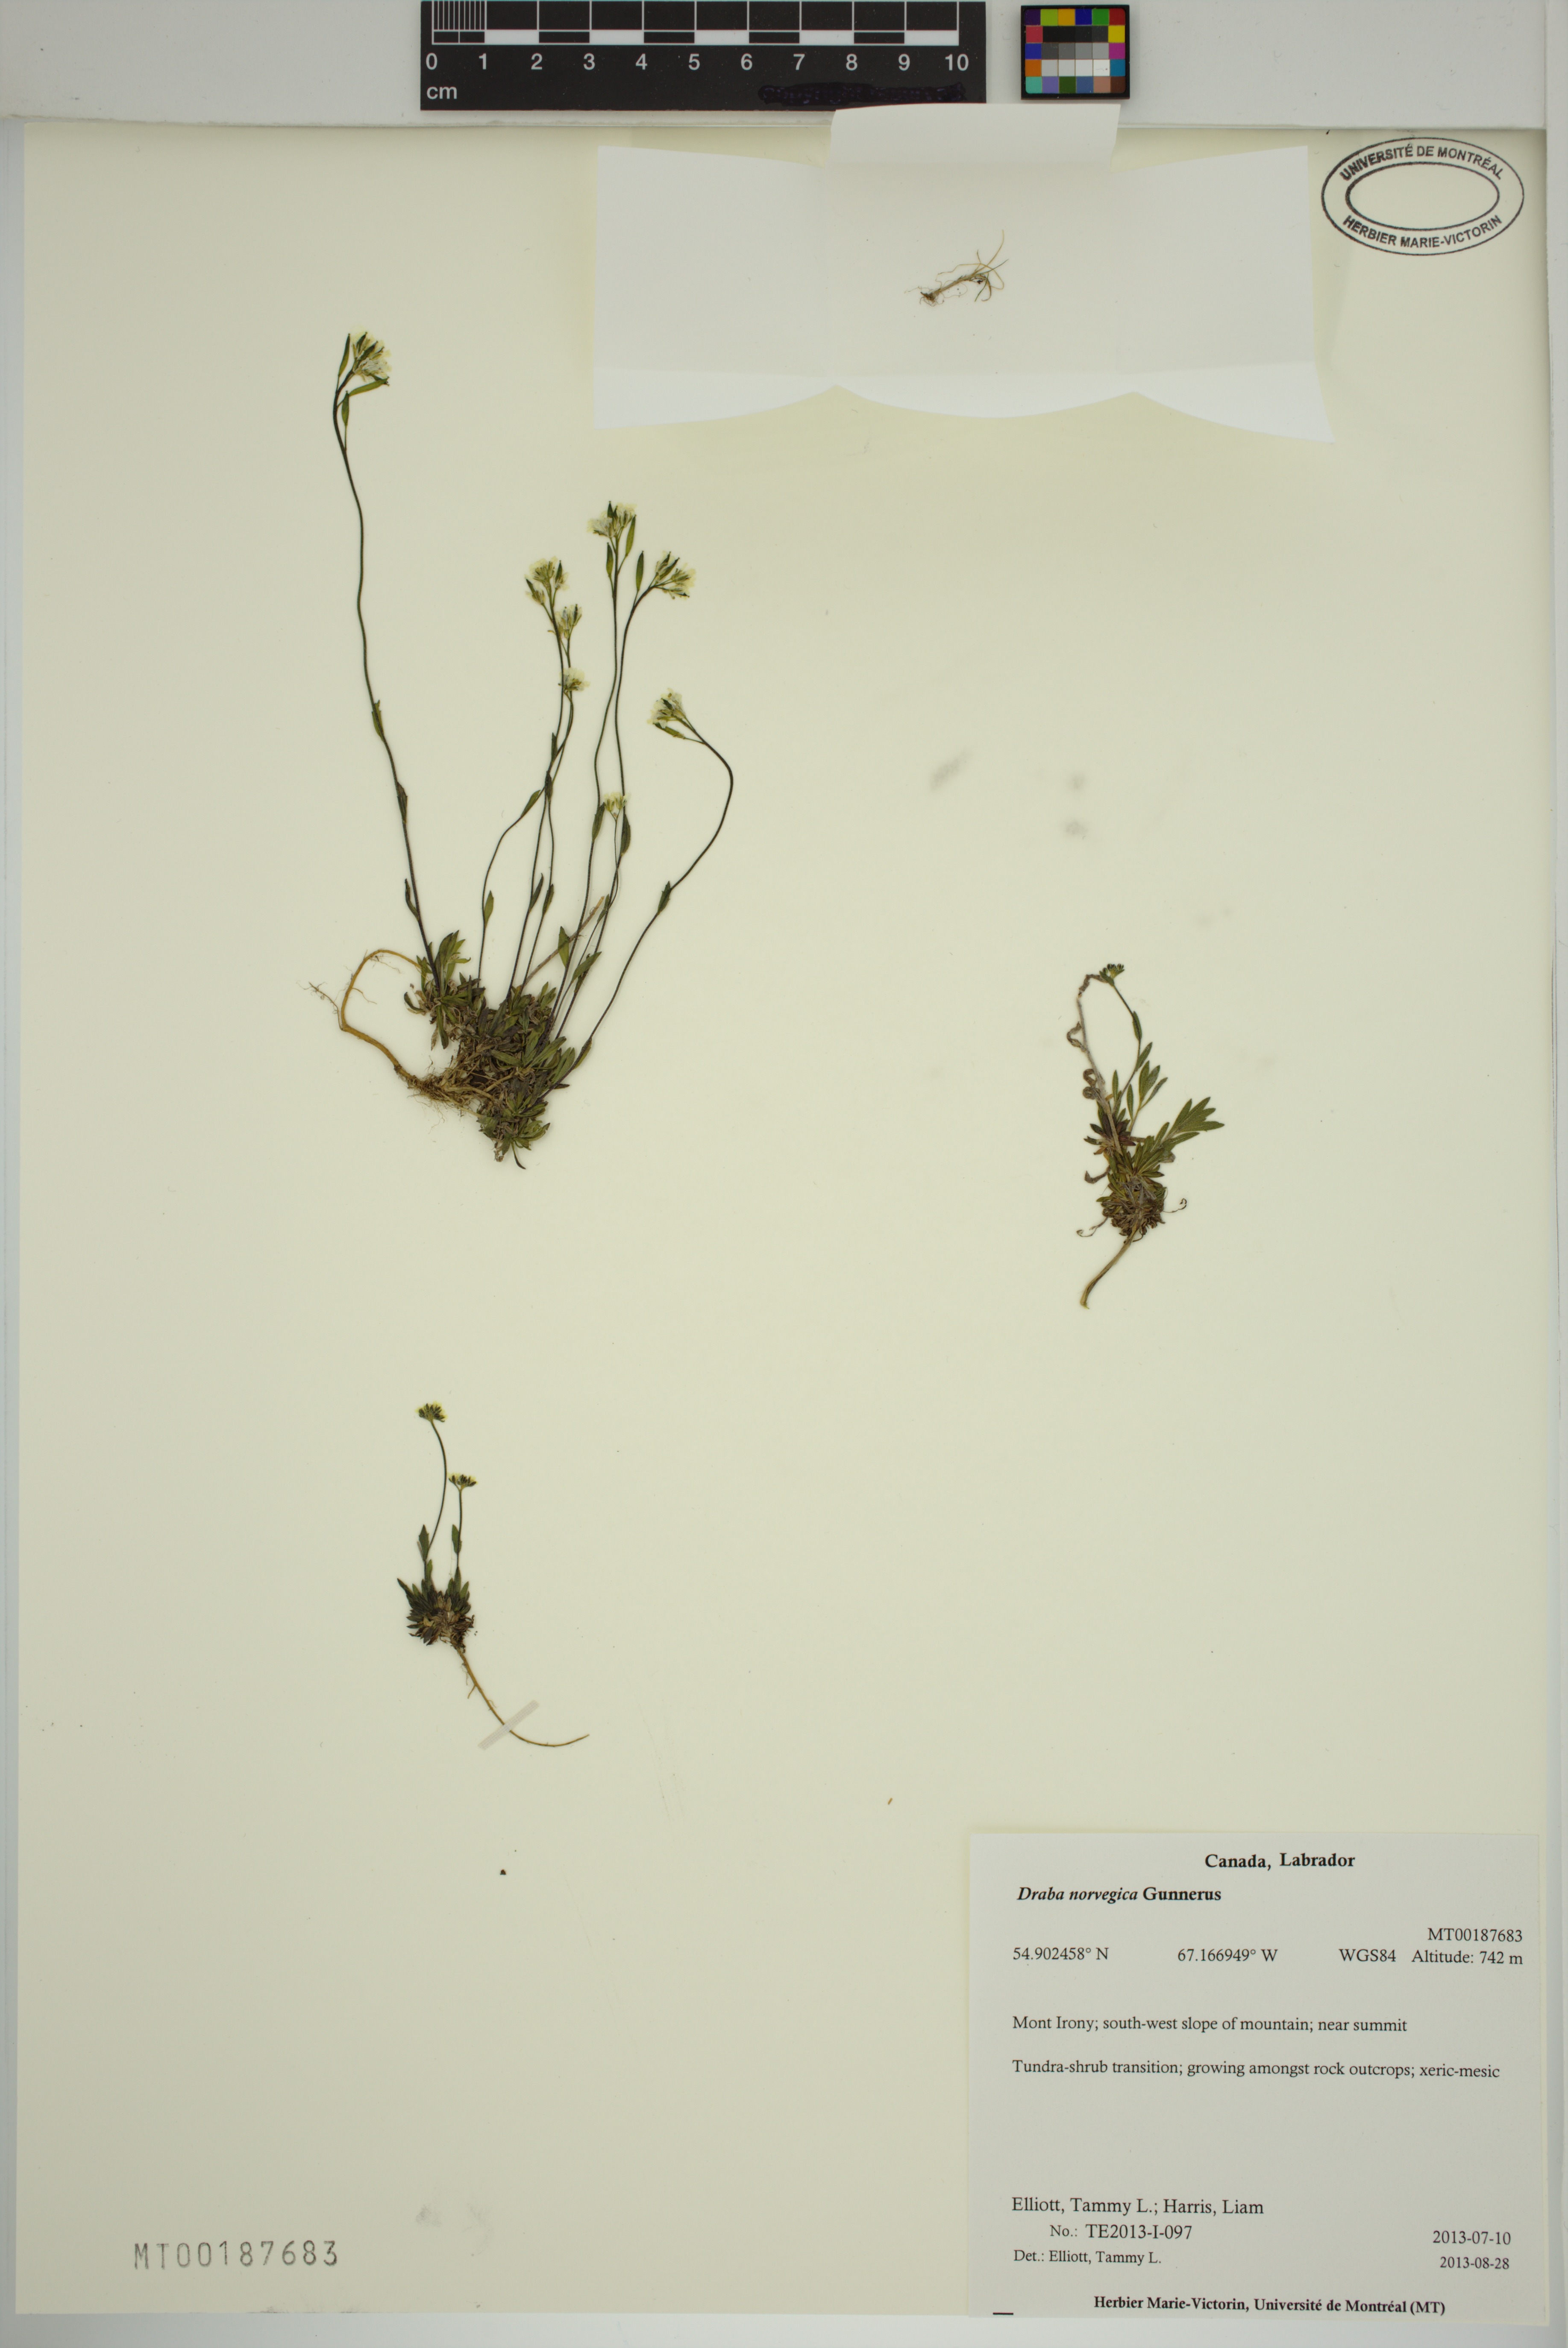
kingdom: Plantae
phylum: Tracheophyta
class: Magnoliopsida
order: Brassicales
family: Brassicaceae
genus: Draba
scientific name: Draba norvegica
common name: Rock whitlowgrass
